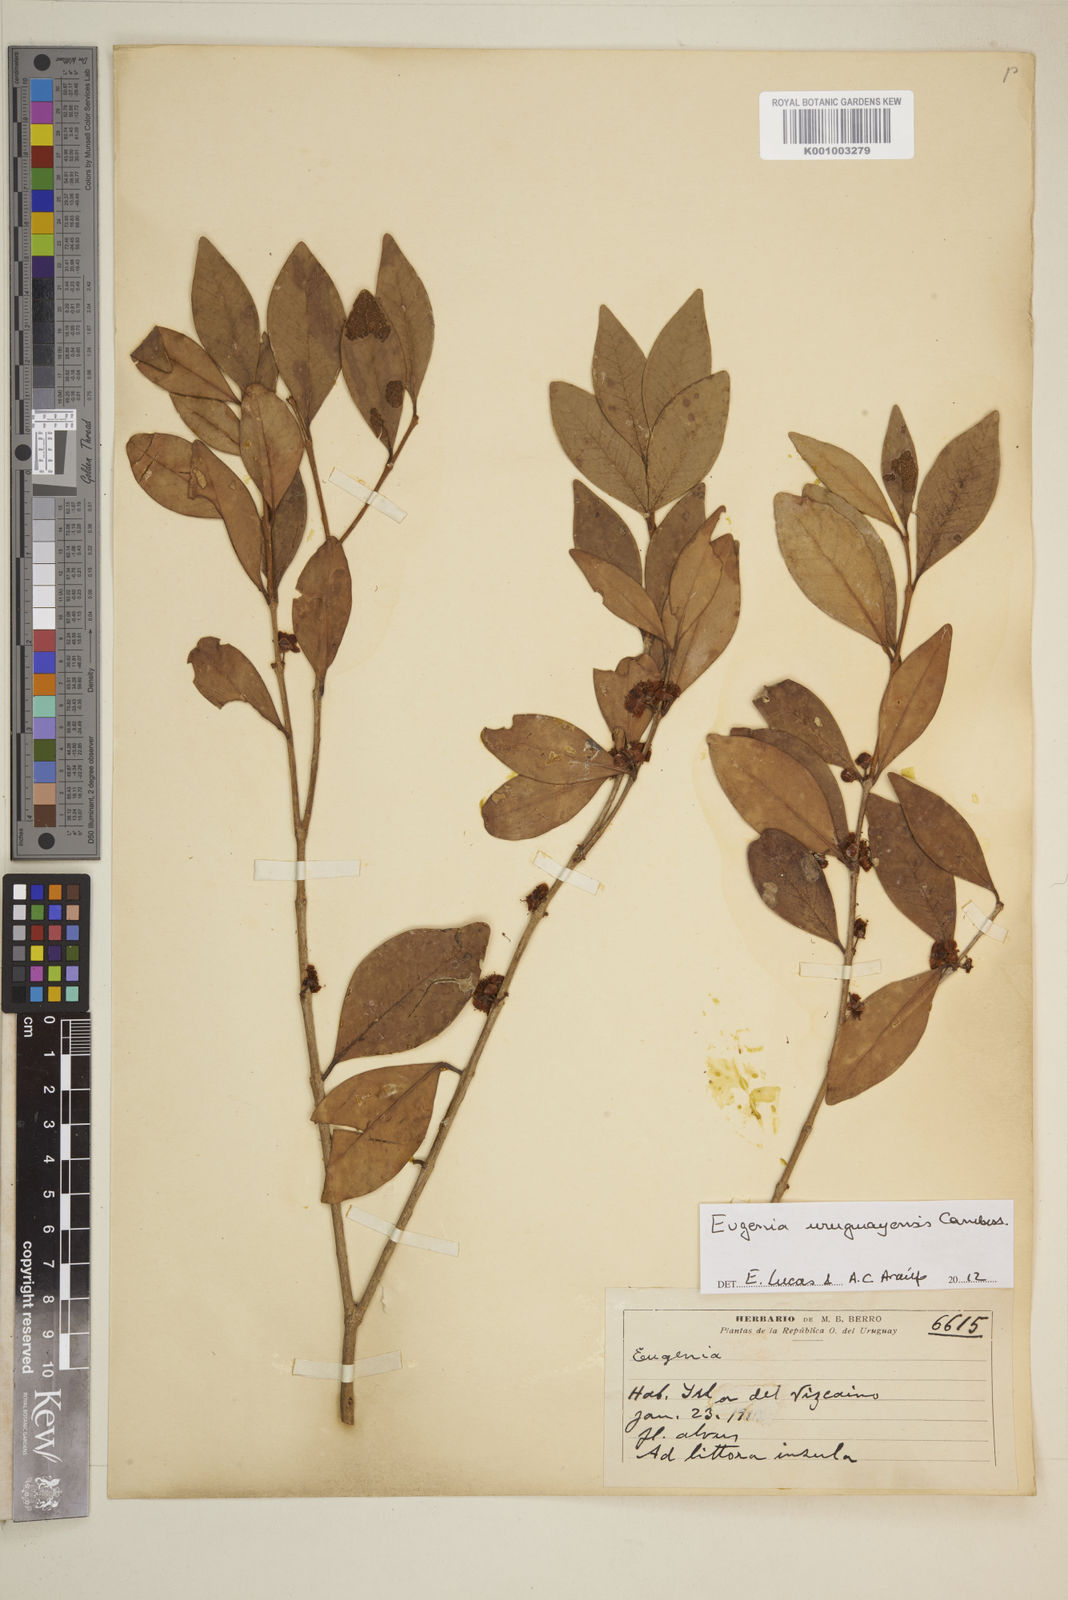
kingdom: Plantae
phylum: Tracheophyta
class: Magnoliopsida
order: Myrtales
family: Myrtaceae
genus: Eugenia
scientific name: Eugenia
